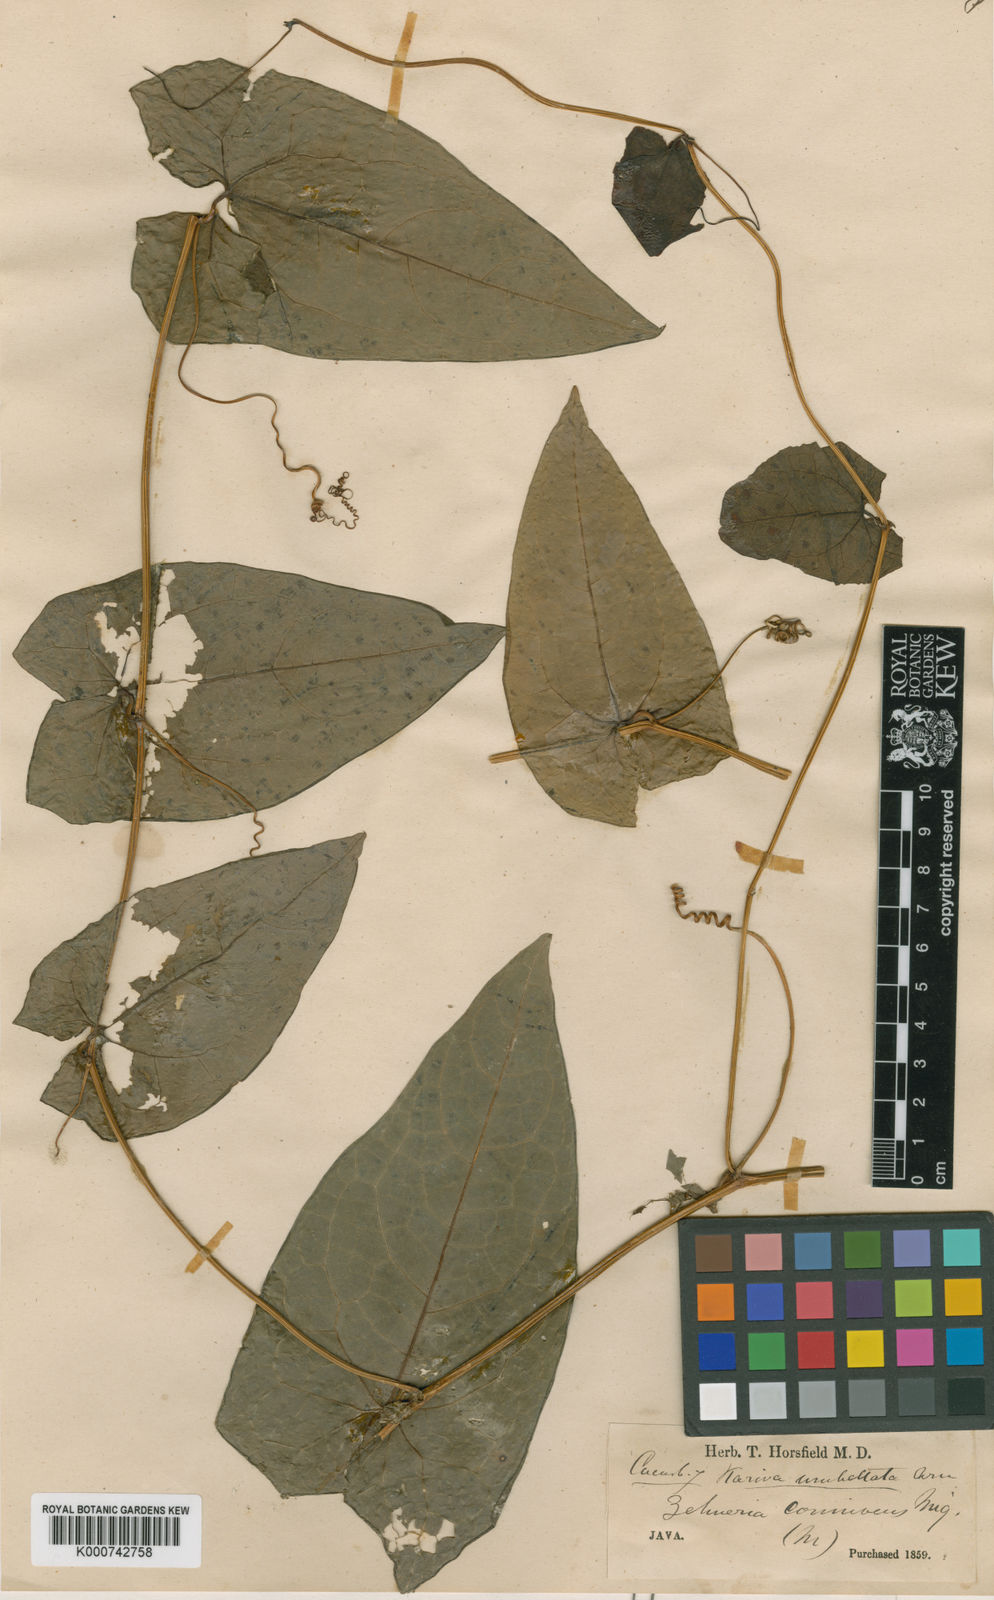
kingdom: Plantae
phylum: Tracheophyta
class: Magnoliopsida
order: Cucurbitales
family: Cucurbitaceae
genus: Solena
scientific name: Solena amplexicaulis
